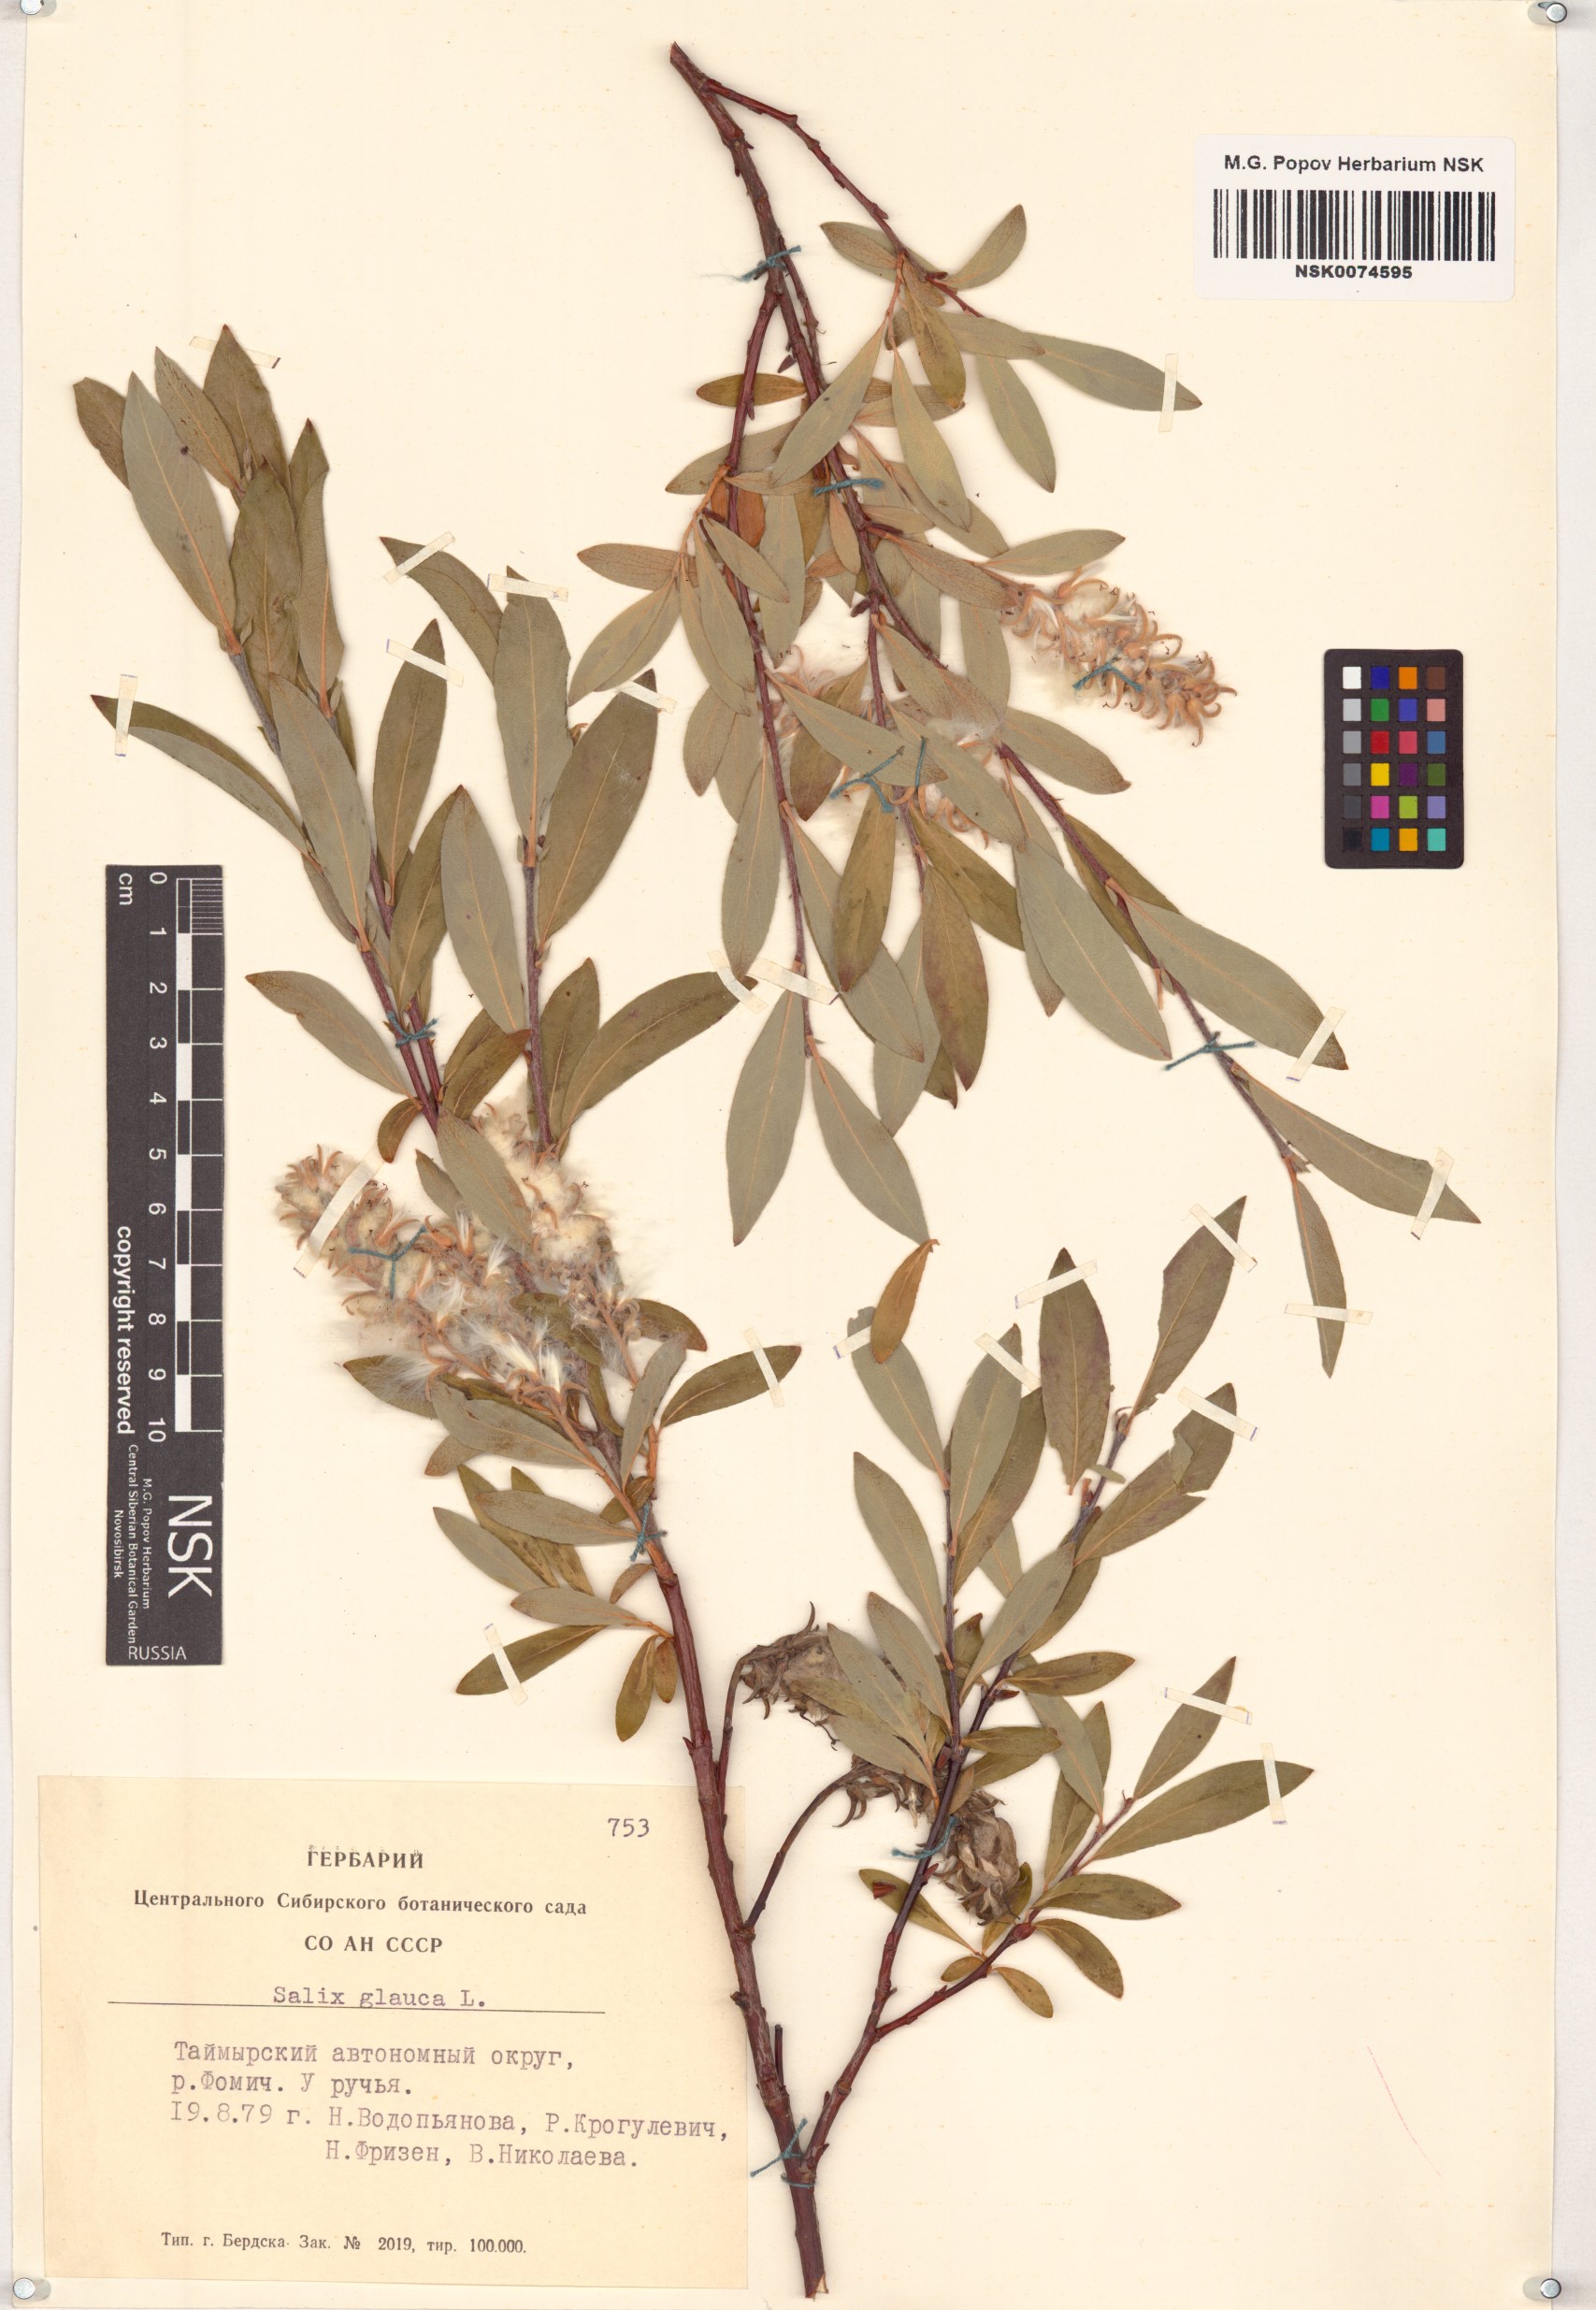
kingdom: Plantae
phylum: Tracheophyta
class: Magnoliopsida
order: Malpighiales
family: Salicaceae
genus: Salix
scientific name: Salix glauca
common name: Glaucous willow
